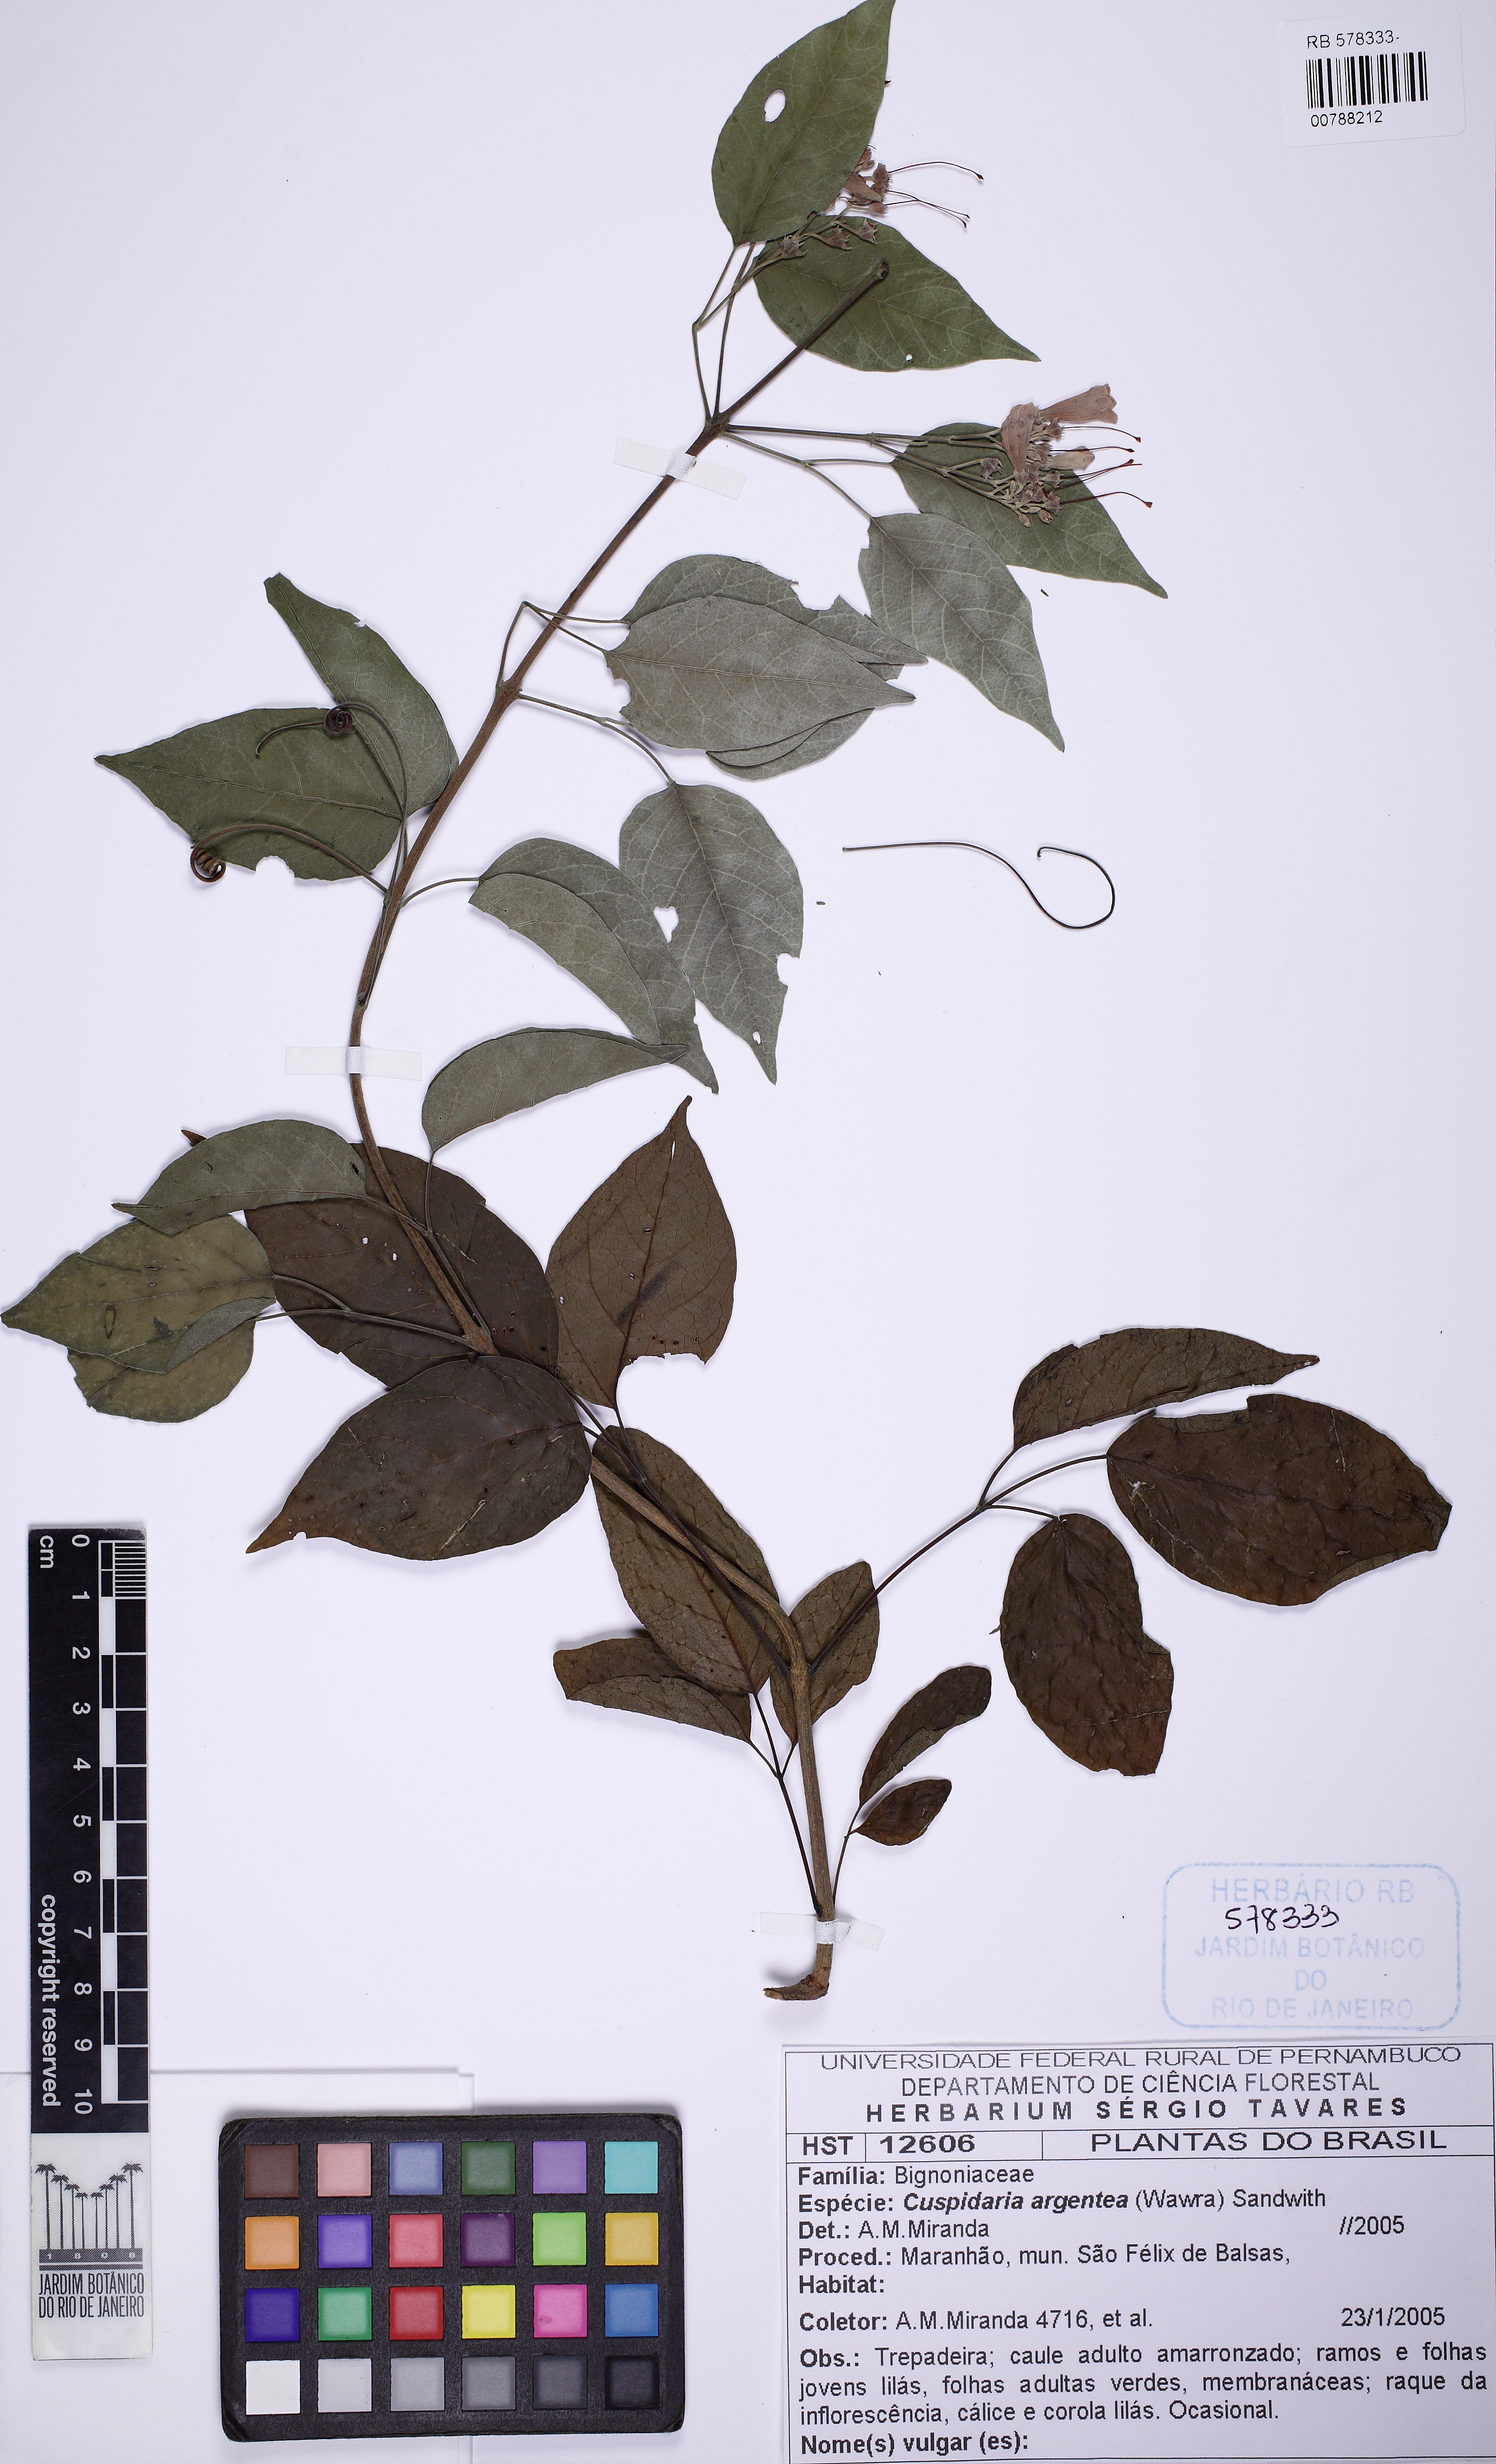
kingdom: Plantae
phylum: Tracheophyta
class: Magnoliopsida
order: Lamiales
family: Bignoniaceae
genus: Cuspidaria
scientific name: Cuspidaria argentea
